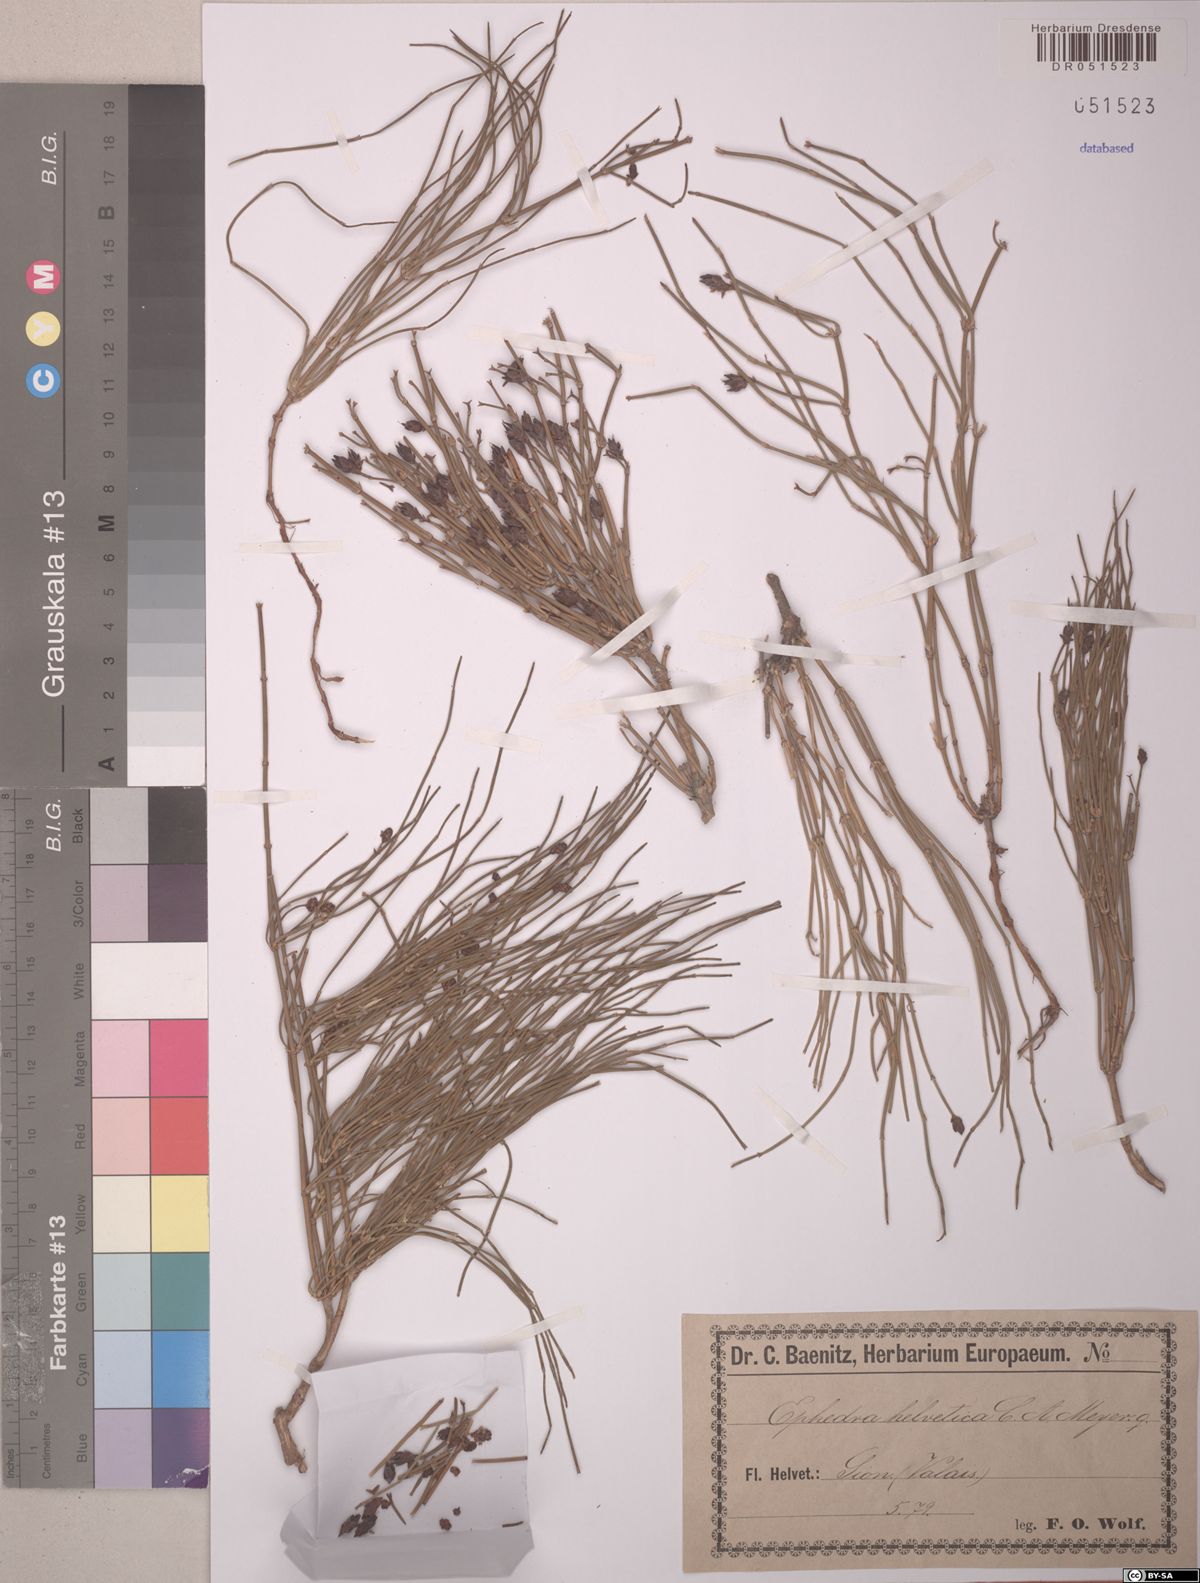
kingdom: Plantae
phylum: Tracheophyta
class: Gnetopsida
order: Ephedrales
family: Ephedraceae
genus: Ephedra
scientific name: Ephedra distachya
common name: Sea grape
